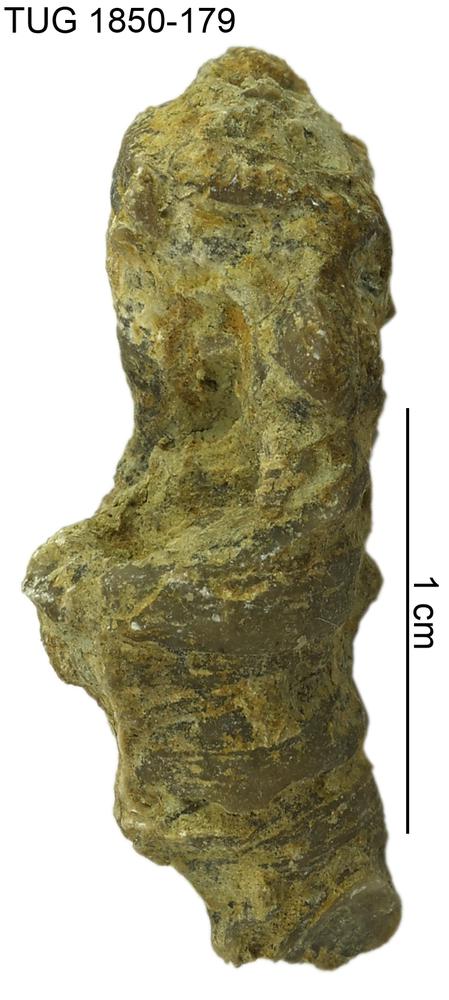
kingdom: Animalia
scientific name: Animalia
